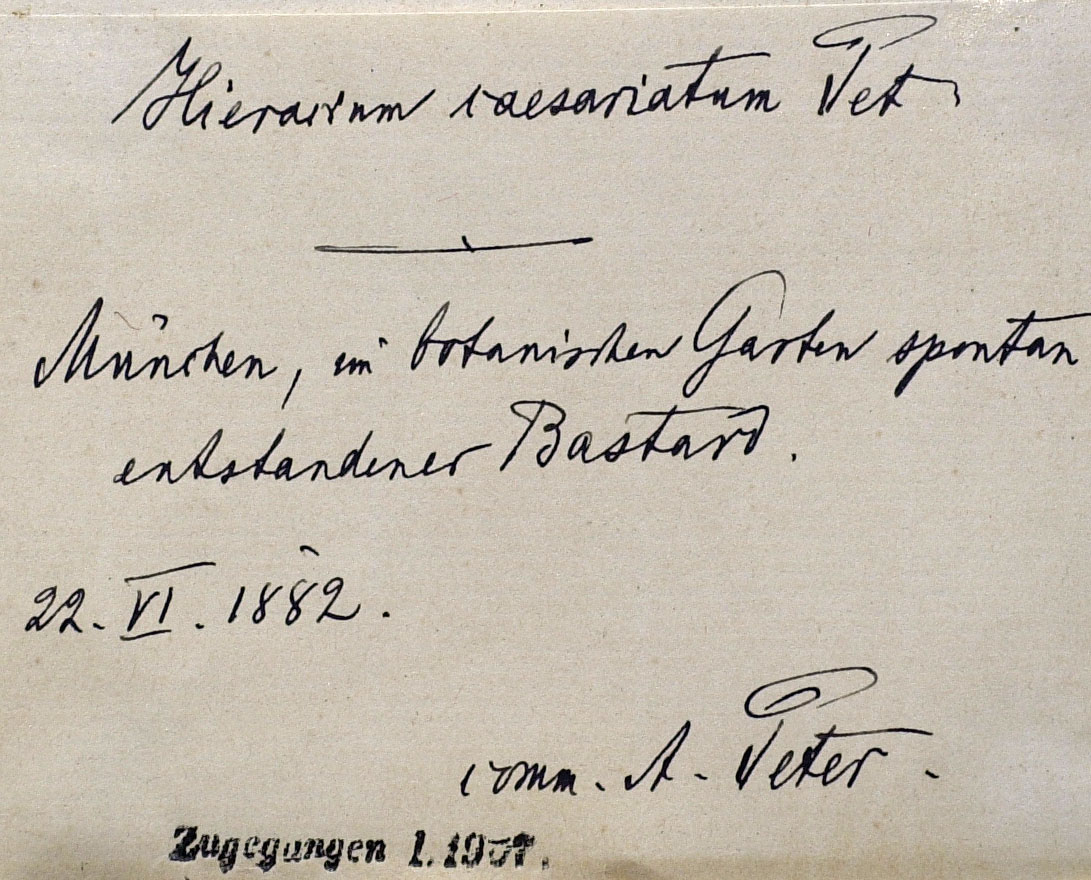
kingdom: Plantae
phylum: Tracheophyta
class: Magnoliopsida
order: Asterales
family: Asteraceae
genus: Hieracium
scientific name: Hieracium caesariatum
